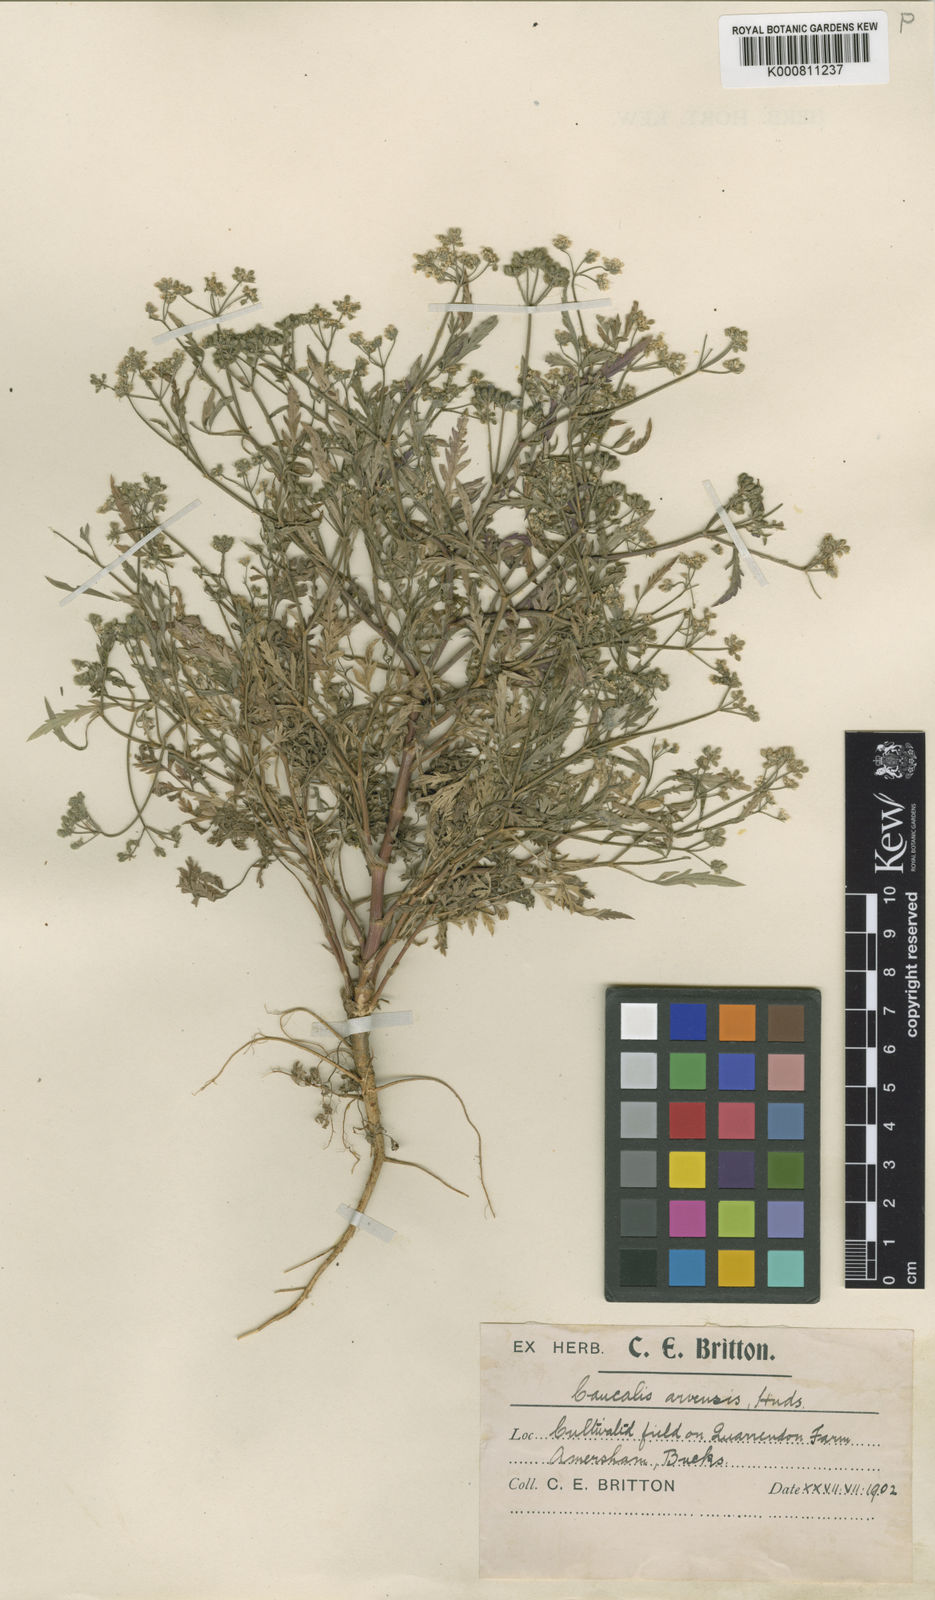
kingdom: Plantae
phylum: Tracheophyta
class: Magnoliopsida
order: Apiales
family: Apiaceae
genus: Torilis
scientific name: Torilis arvensis
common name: Spreading hedge-parsley
